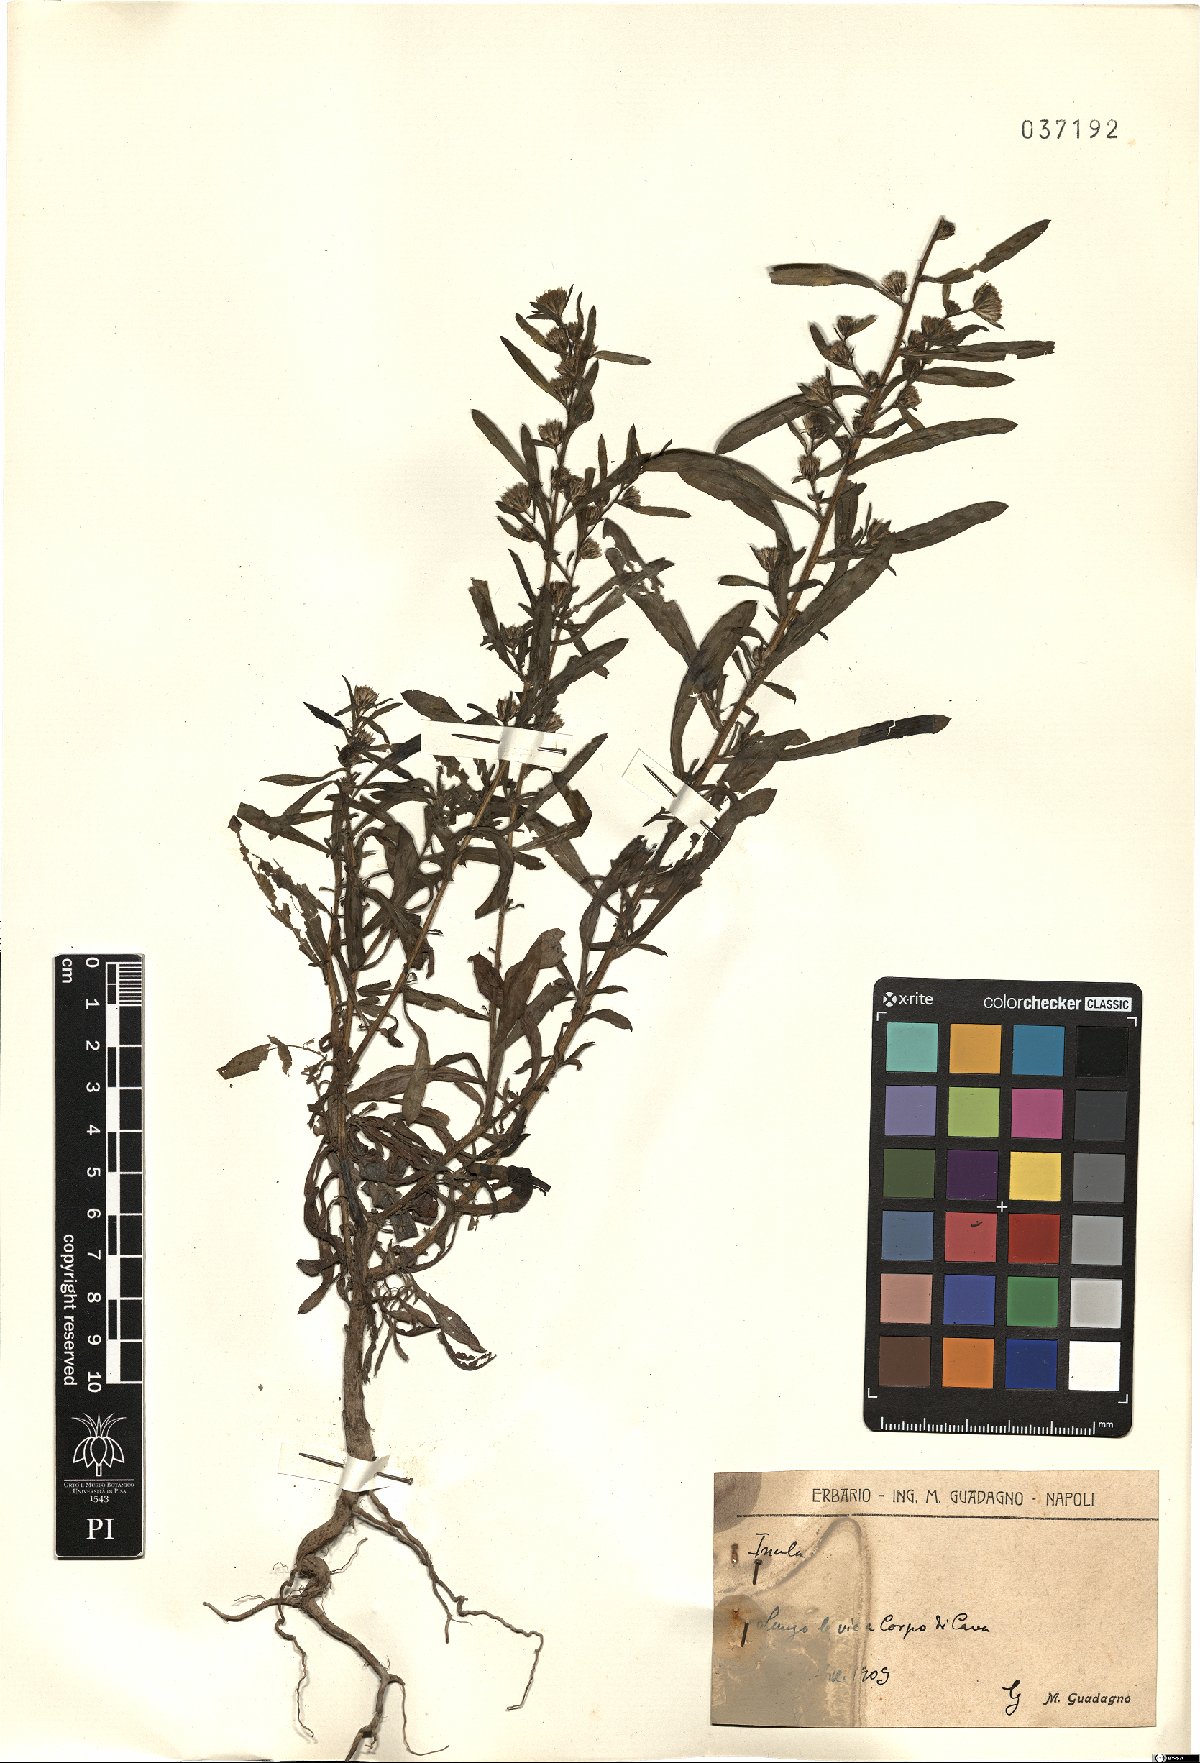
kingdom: Plantae
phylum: Tracheophyta
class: Magnoliopsida
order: Asterales
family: Asteraceae
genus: Inula
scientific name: Inula
